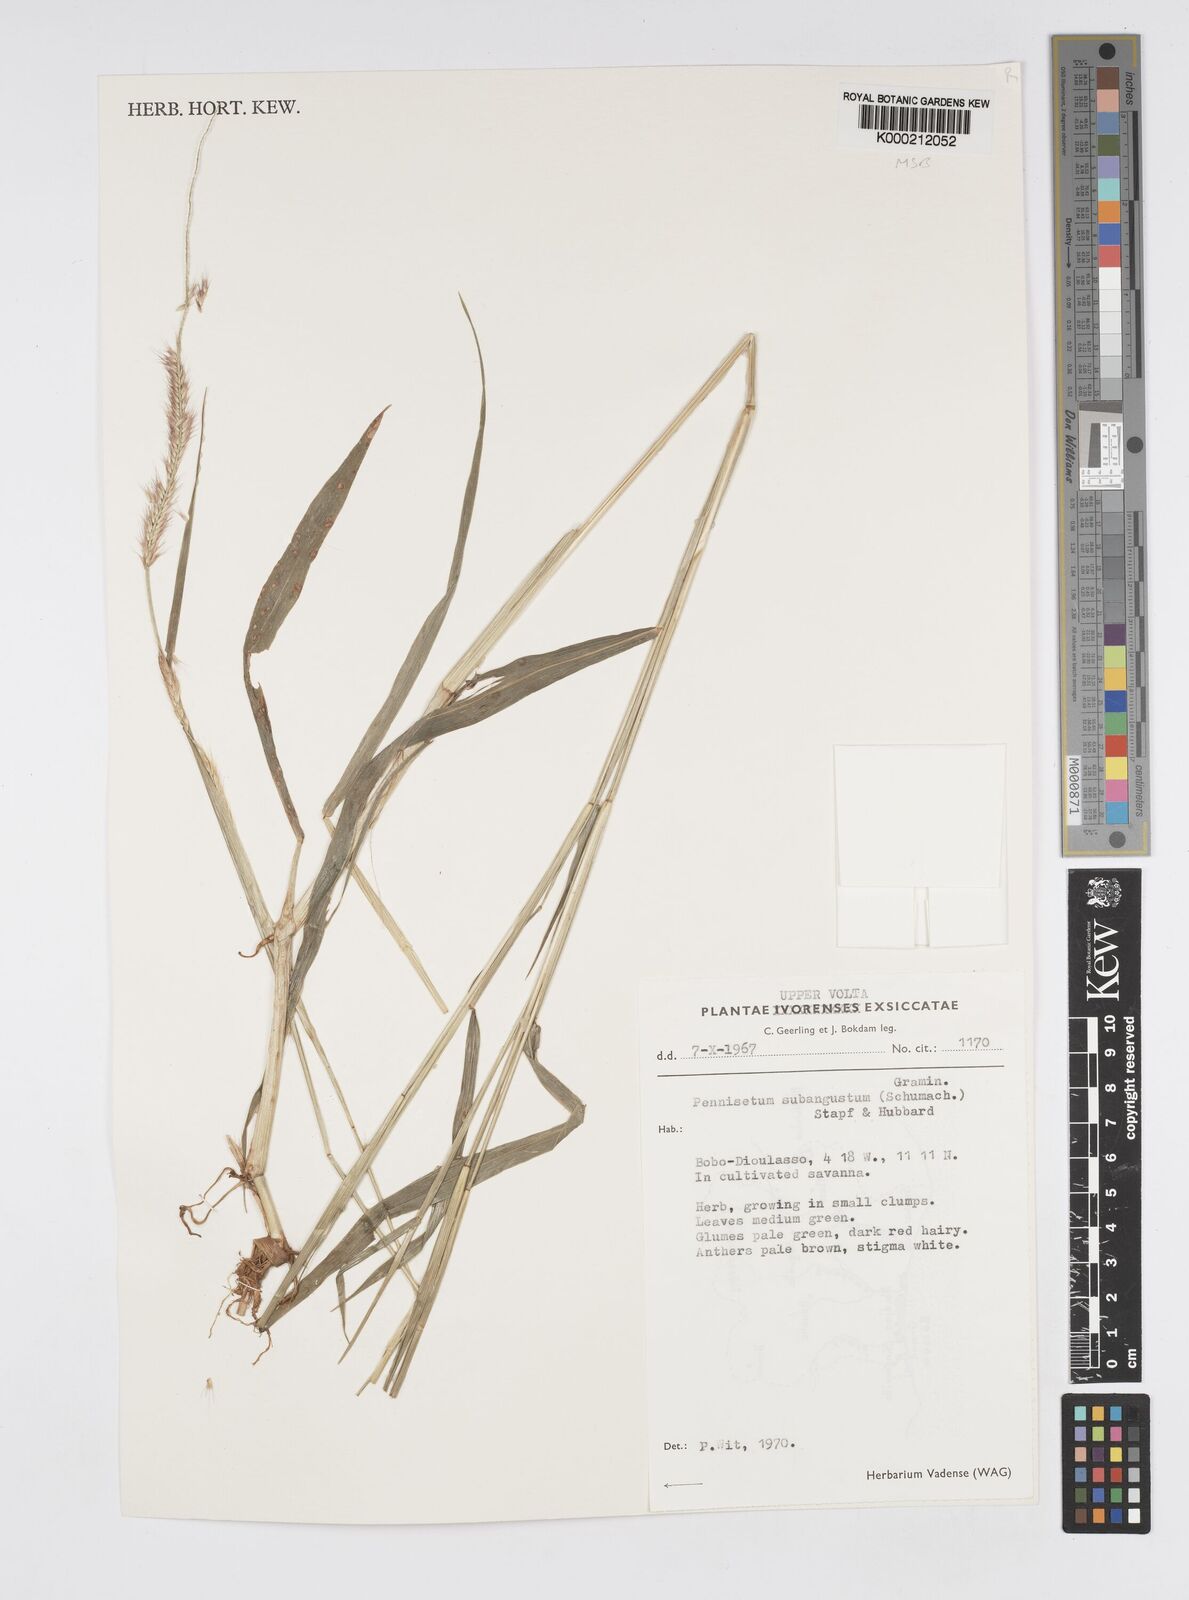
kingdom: Plantae
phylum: Tracheophyta
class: Liliopsida
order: Poales
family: Poaceae
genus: Setaria
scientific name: Setaria parviflora
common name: Knotroot bristle-grass
